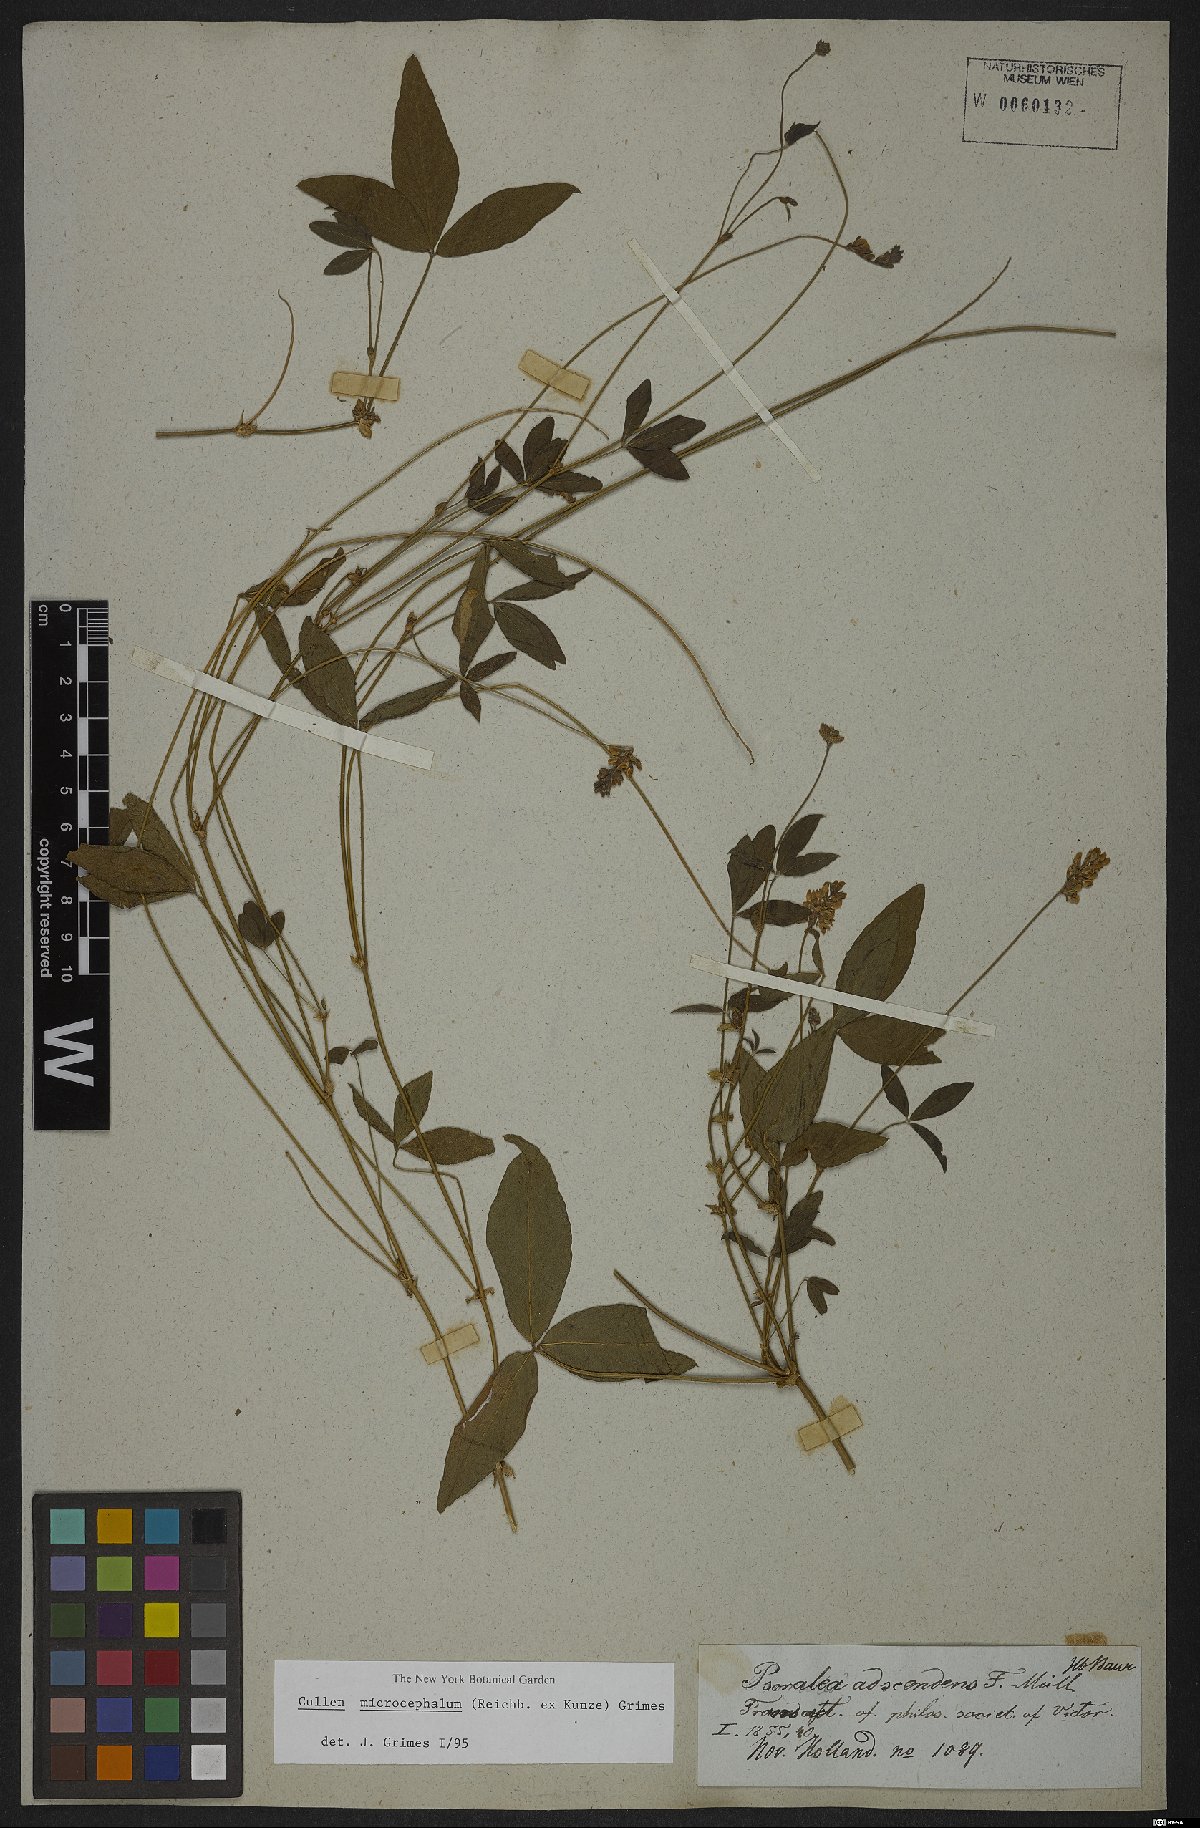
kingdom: Plantae
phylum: Tracheophyta
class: Magnoliopsida
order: Fabales
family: Fabaceae
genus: Cullen
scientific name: Cullen microcephalum
